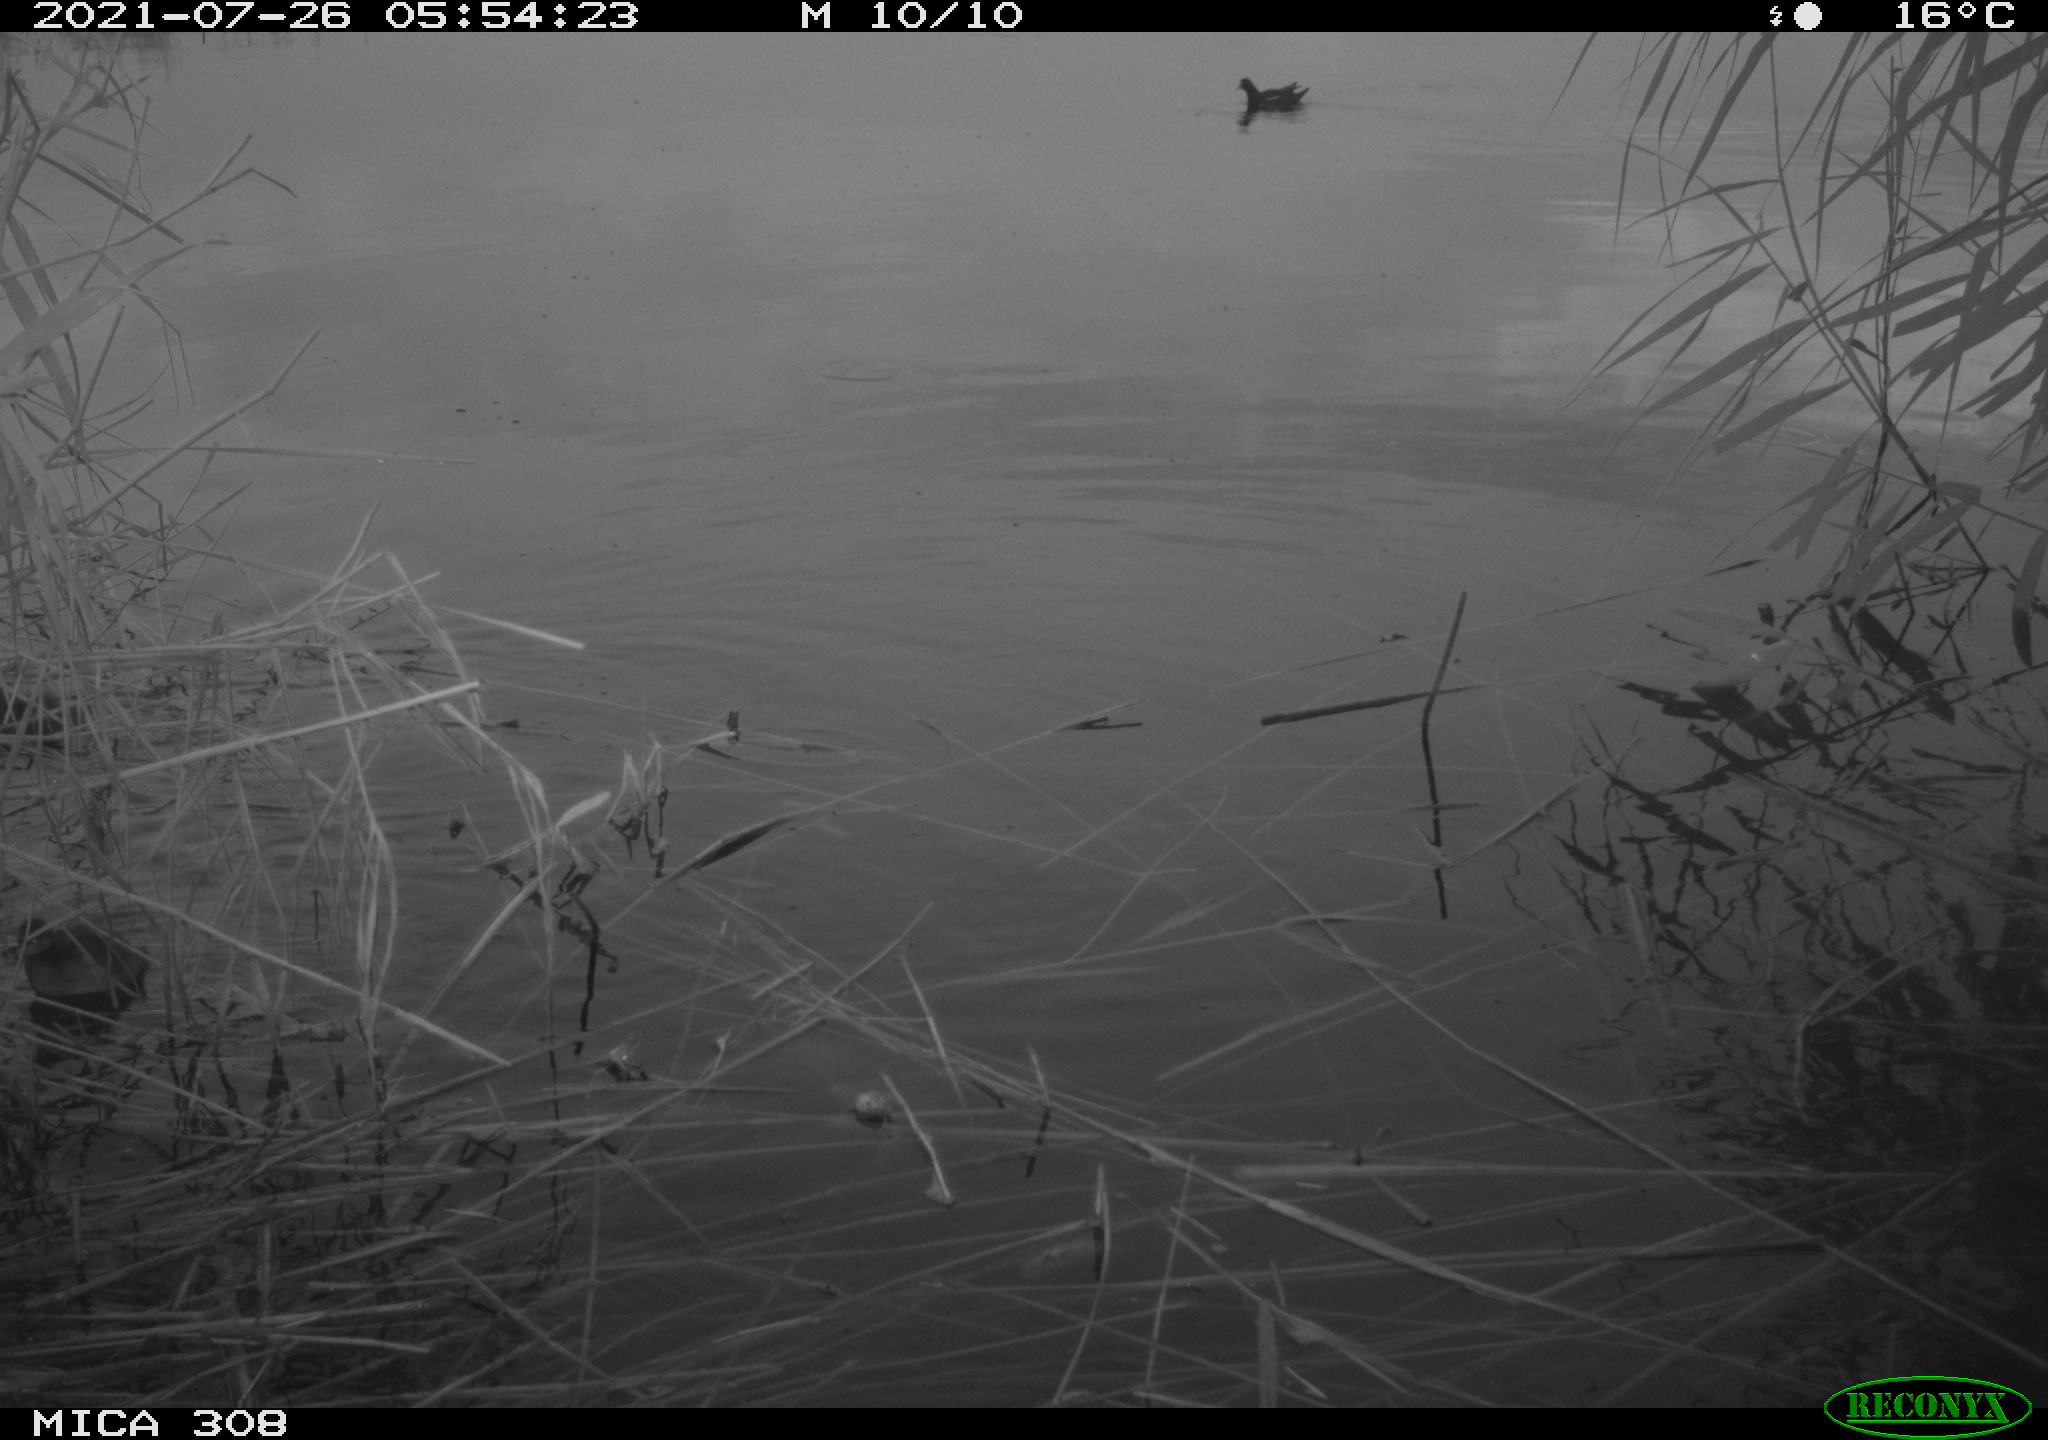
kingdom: Animalia
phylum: Chordata
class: Aves
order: Podicipediformes
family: Podicipedidae
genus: Tachybaptus
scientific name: Tachybaptus ruficollis
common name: Little grebe
